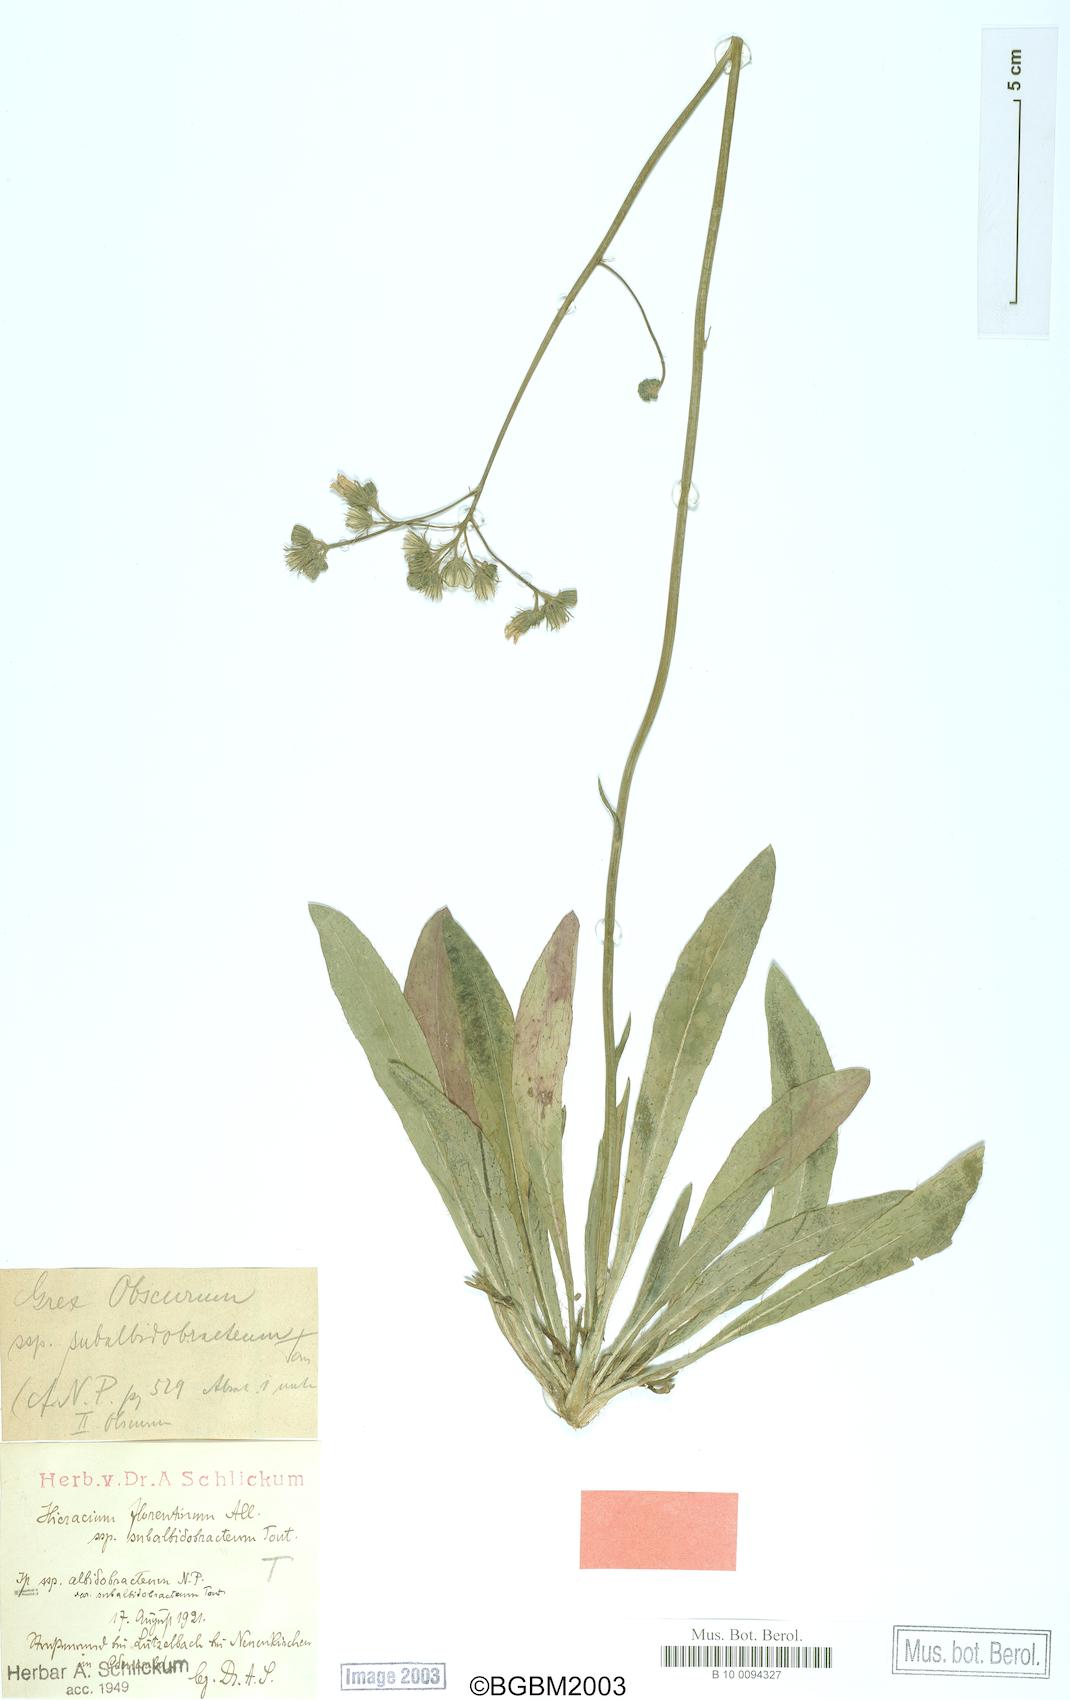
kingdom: Plantae
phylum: Tracheophyta
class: Magnoliopsida
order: Asterales
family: Asteraceae
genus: Pilosella
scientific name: Pilosella piloselloides
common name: Glaucous king-devil
